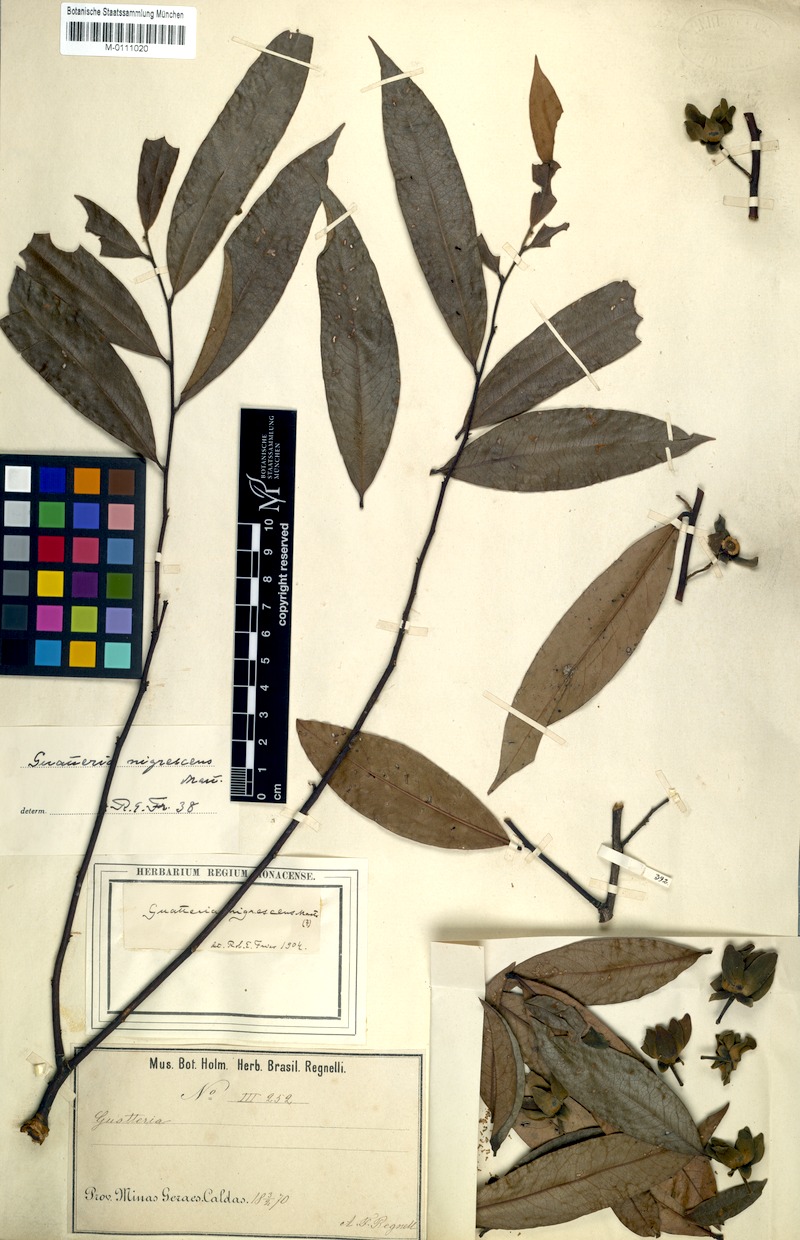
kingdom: Plantae
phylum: Tracheophyta
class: Magnoliopsida
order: Magnoliales
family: Annonaceae
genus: Guatteria
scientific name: Guatteria australis
